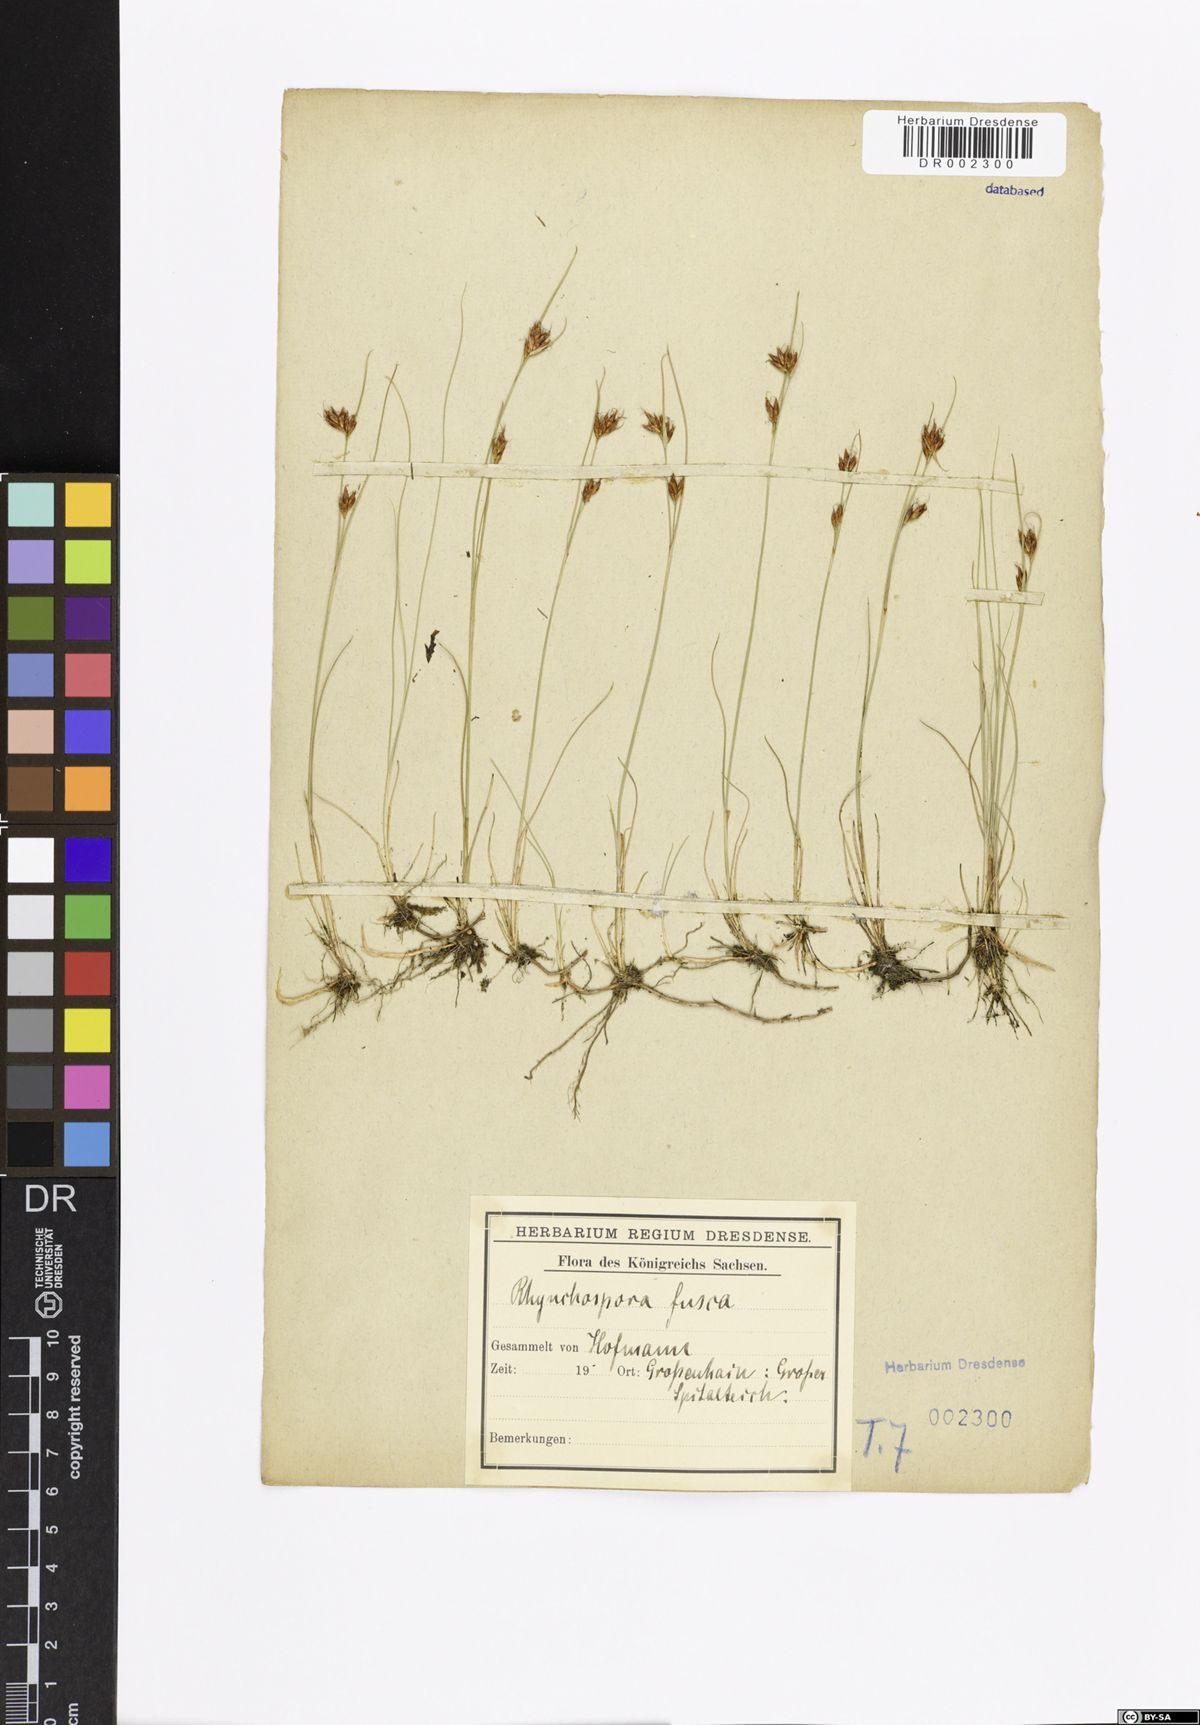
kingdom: Plantae
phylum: Tracheophyta
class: Liliopsida
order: Poales
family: Cyperaceae
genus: Rhynchospora
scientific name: Rhynchospora fusca
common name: Brown beak-sedge
